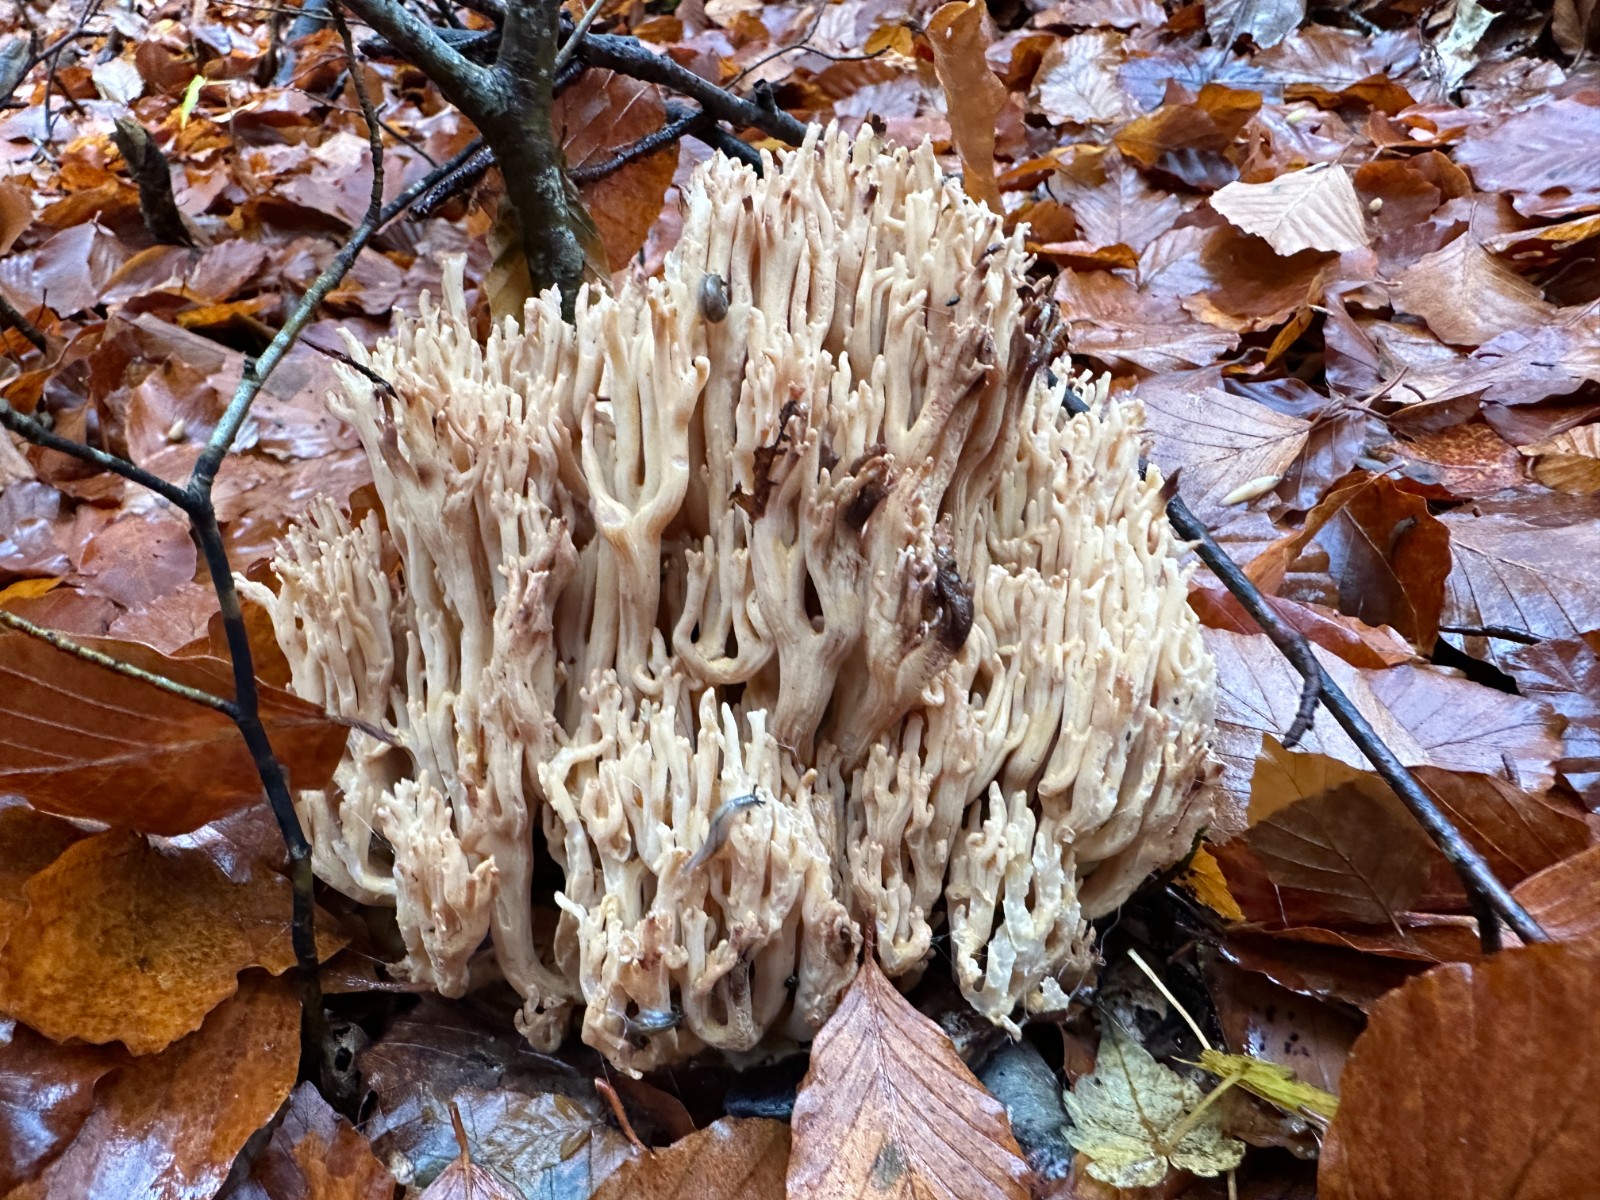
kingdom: Fungi
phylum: Basidiomycota
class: Agaricomycetes
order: Gomphales
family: Gomphaceae
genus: Ramaria
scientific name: Ramaria
